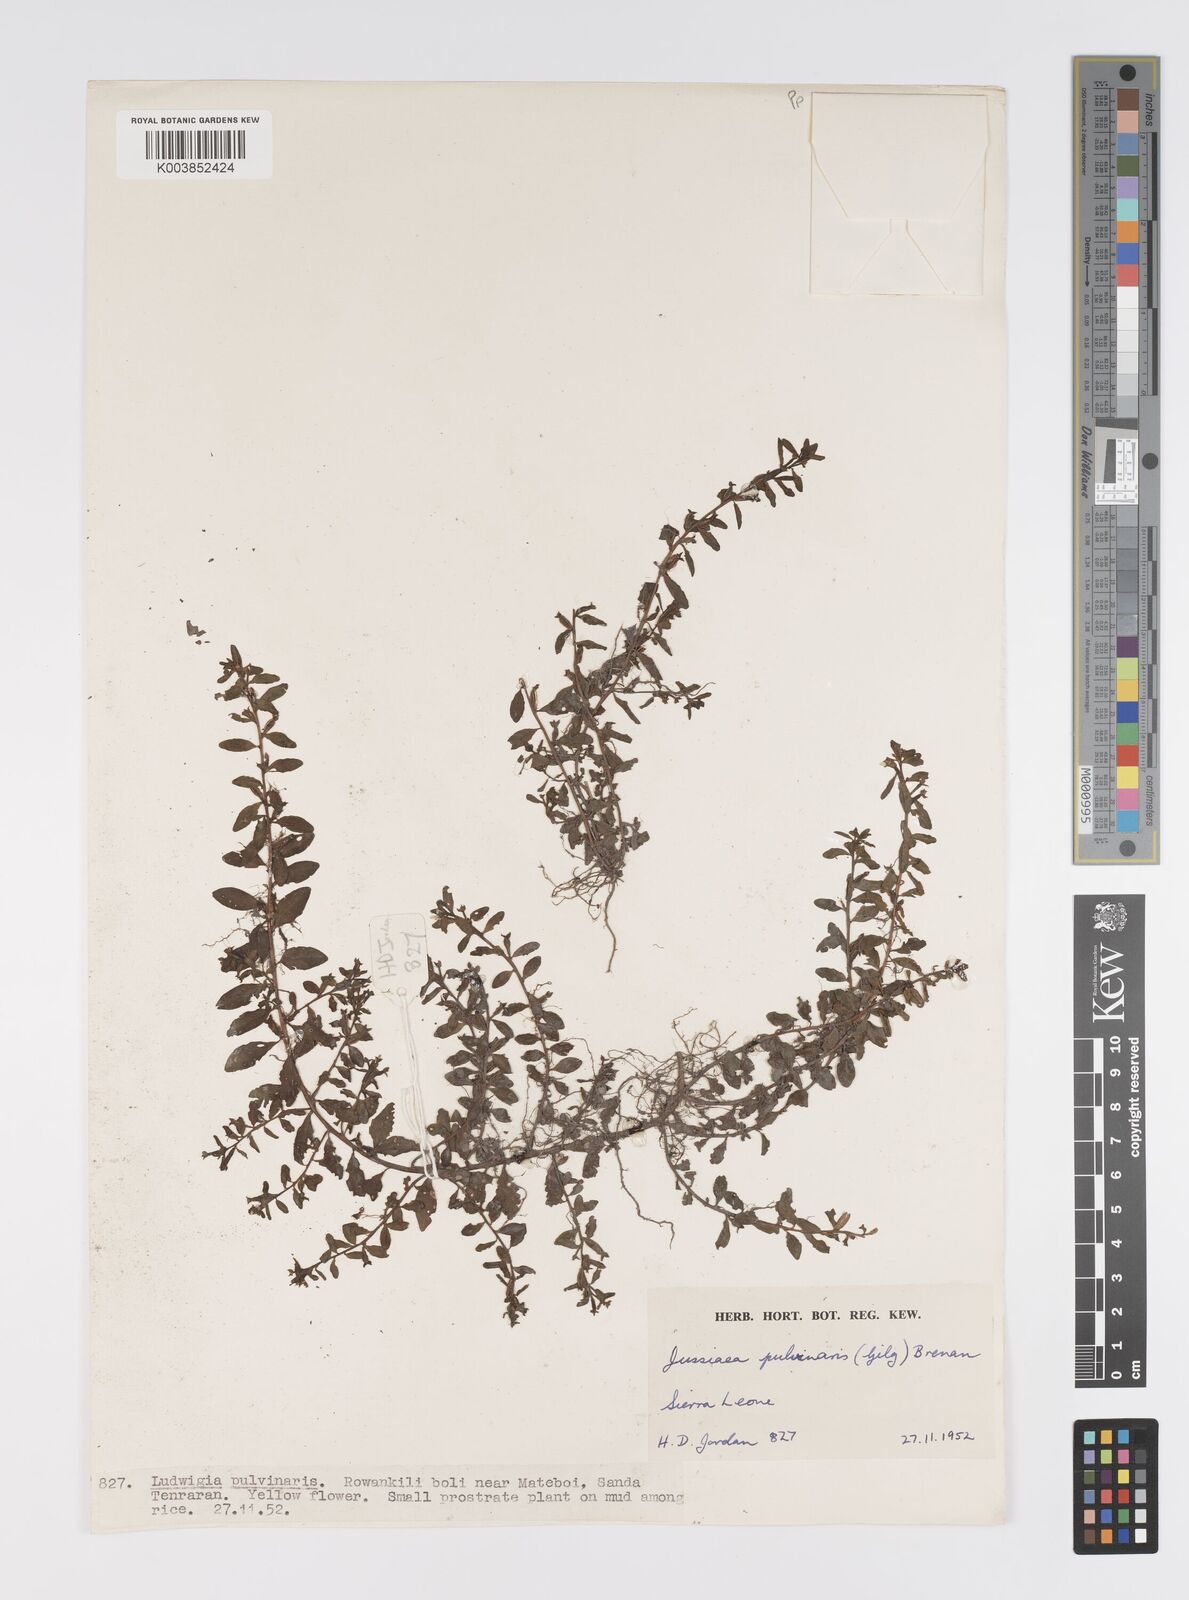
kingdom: Plantae
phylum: Tracheophyta
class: Magnoliopsida
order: Myrtales
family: Onagraceae
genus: Ludwigia
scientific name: Ludwigia senegalensis
